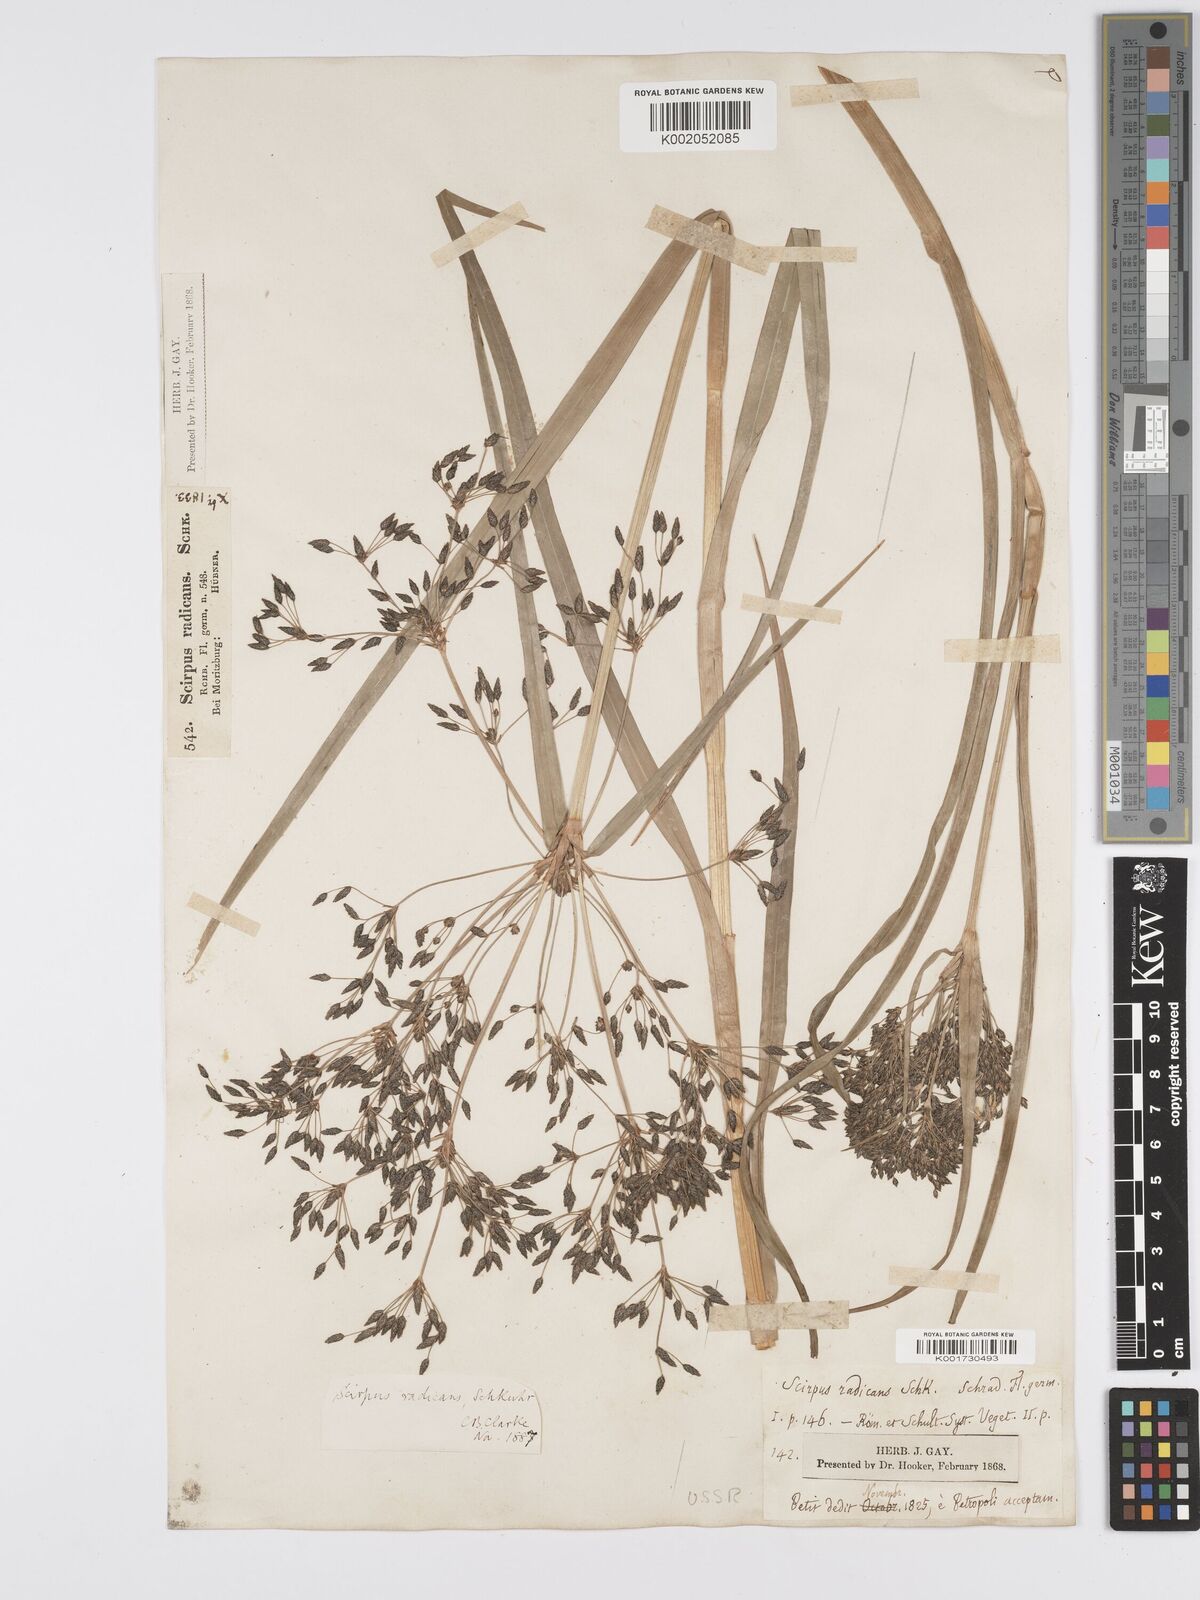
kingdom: Plantae
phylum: Tracheophyta
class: Liliopsida
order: Poales
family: Cyperaceae
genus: Scirpus
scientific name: Scirpus radicans
